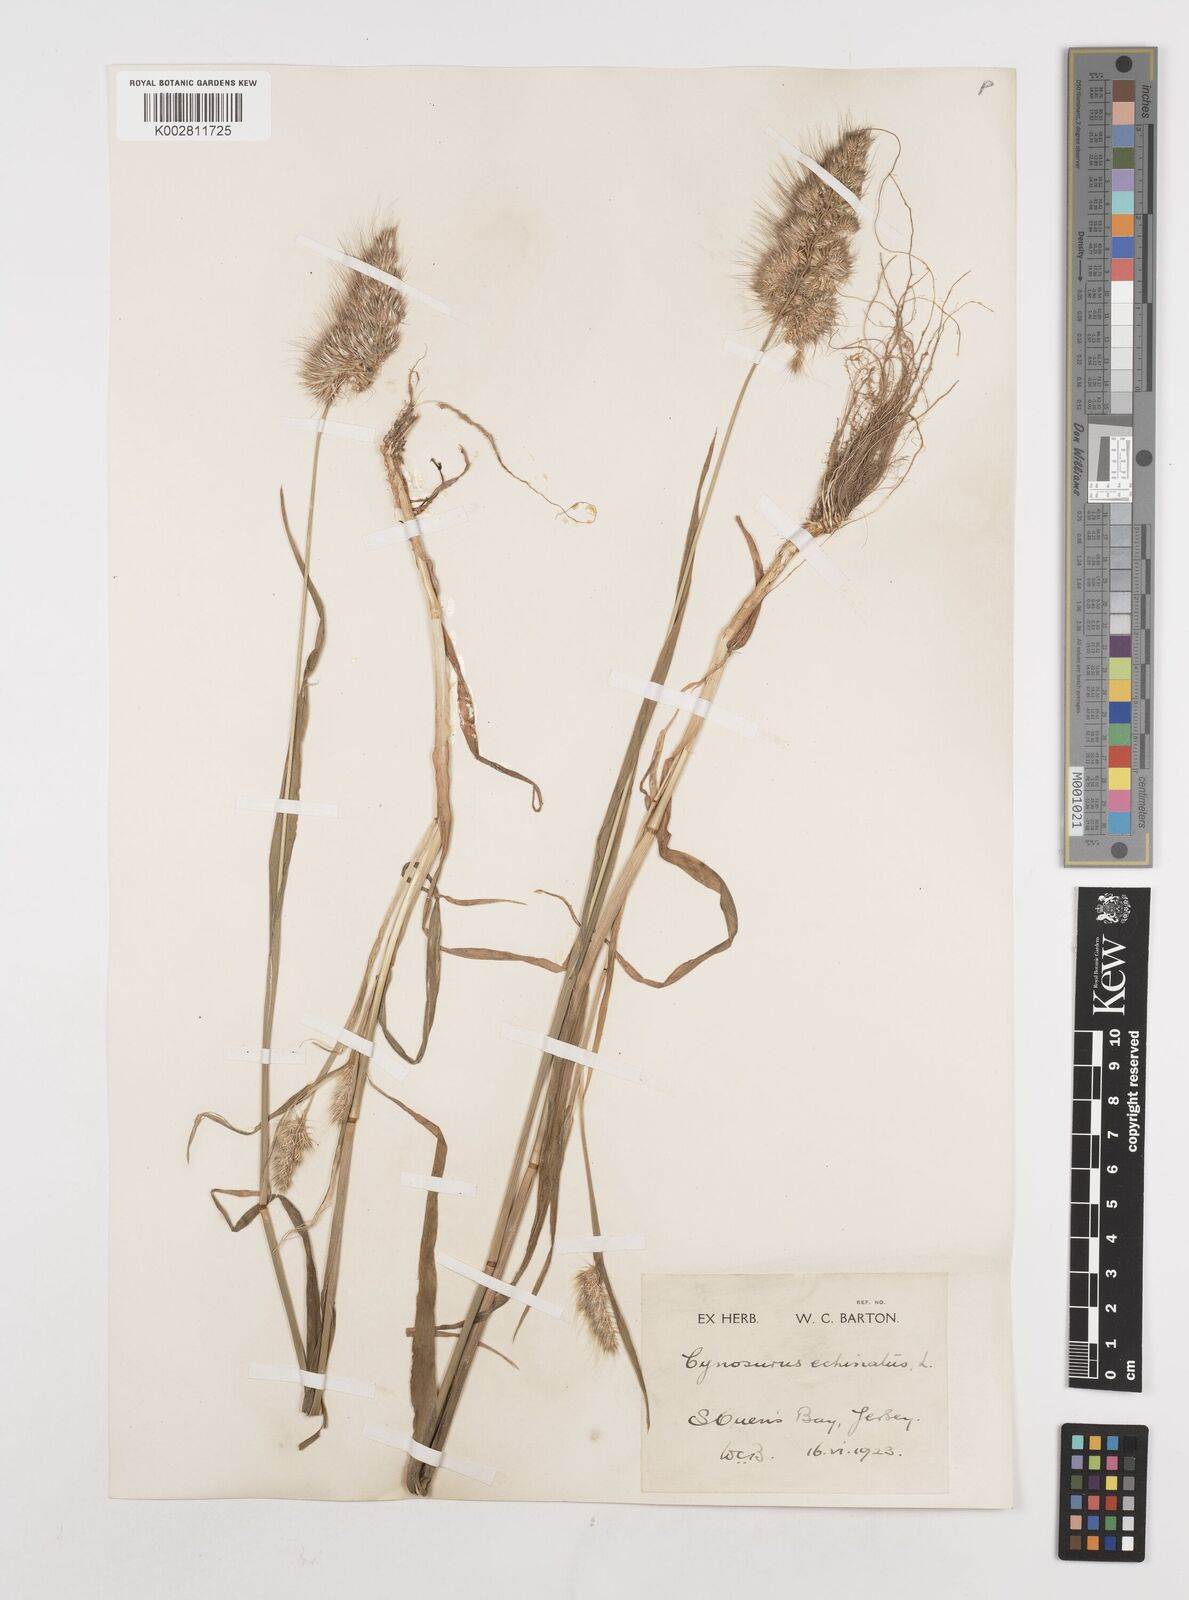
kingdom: Plantae
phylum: Tracheophyta
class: Liliopsida
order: Poales
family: Poaceae
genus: Cynosurus
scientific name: Cynosurus echinatus
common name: Rough dog's-tail
